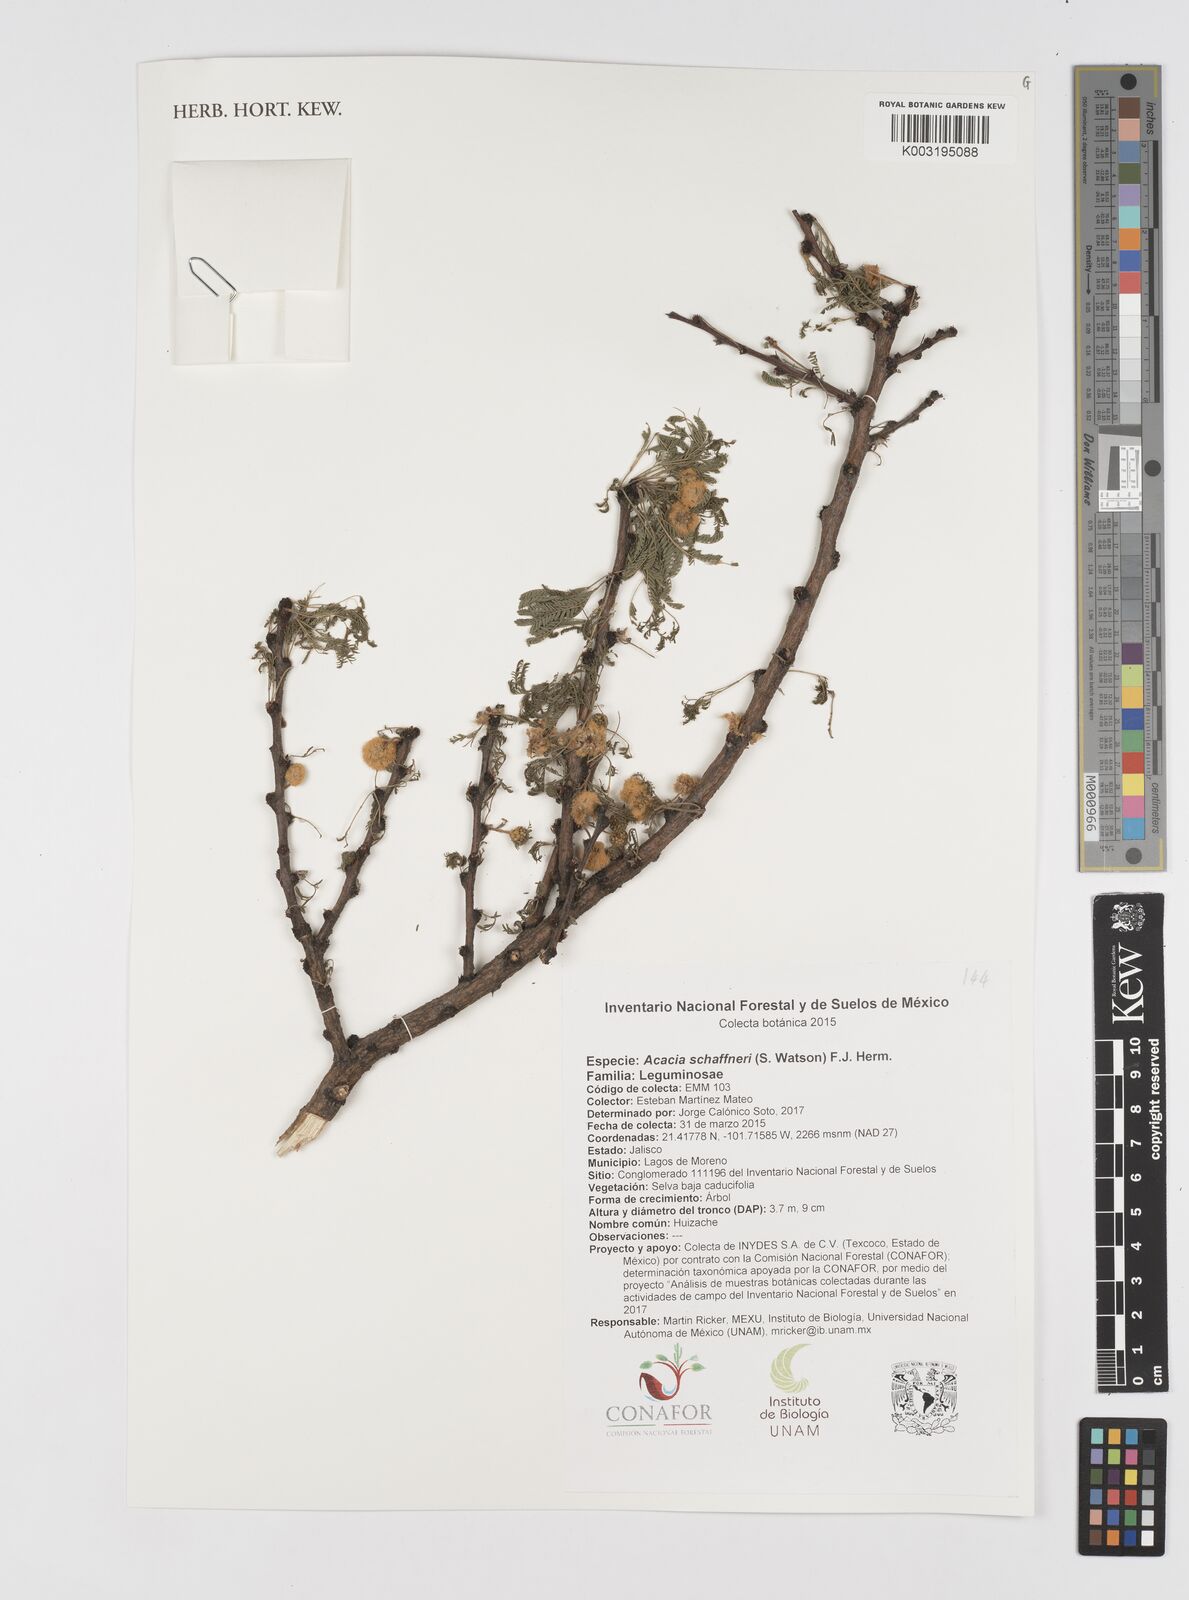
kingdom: Plantae
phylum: Tracheophyta
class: Magnoliopsida
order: Fabales
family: Fabaceae
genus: Vachellia
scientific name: Vachellia schaffneri
